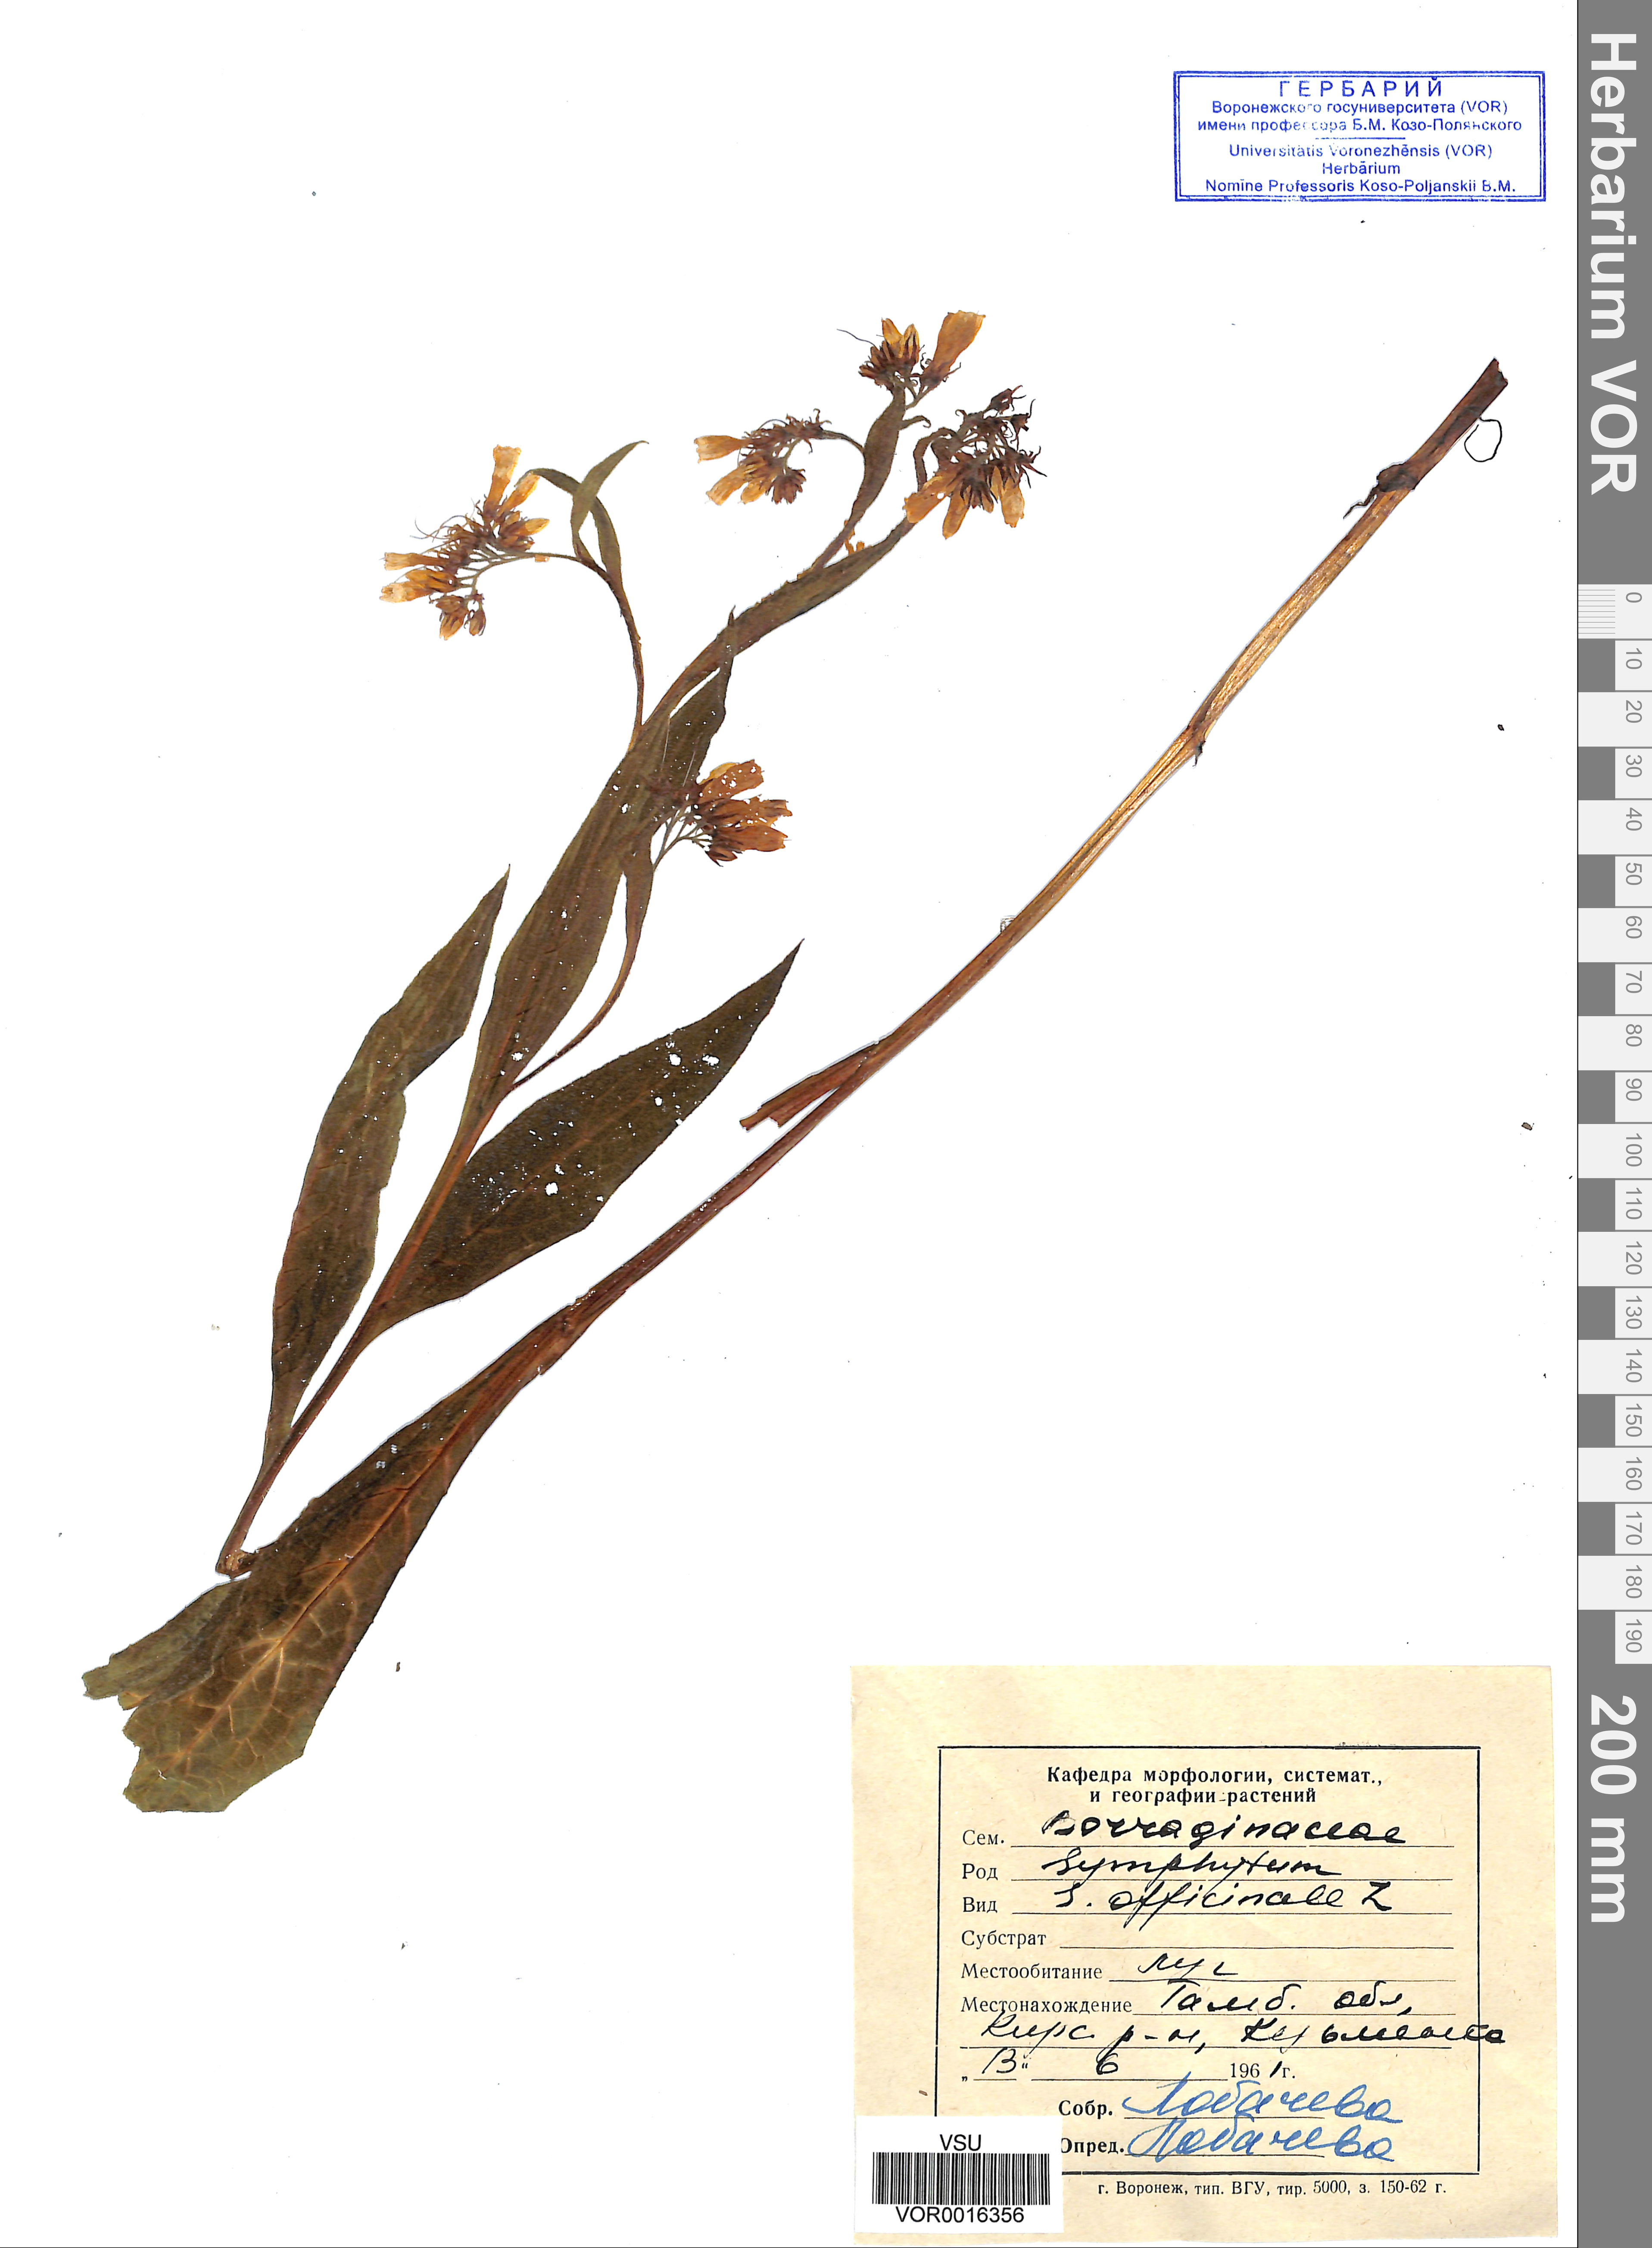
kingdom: Plantae
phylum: Tracheophyta
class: Magnoliopsida
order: Boraginales
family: Boraginaceae
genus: Symphytum
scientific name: Symphytum officinale
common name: Common comfrey
